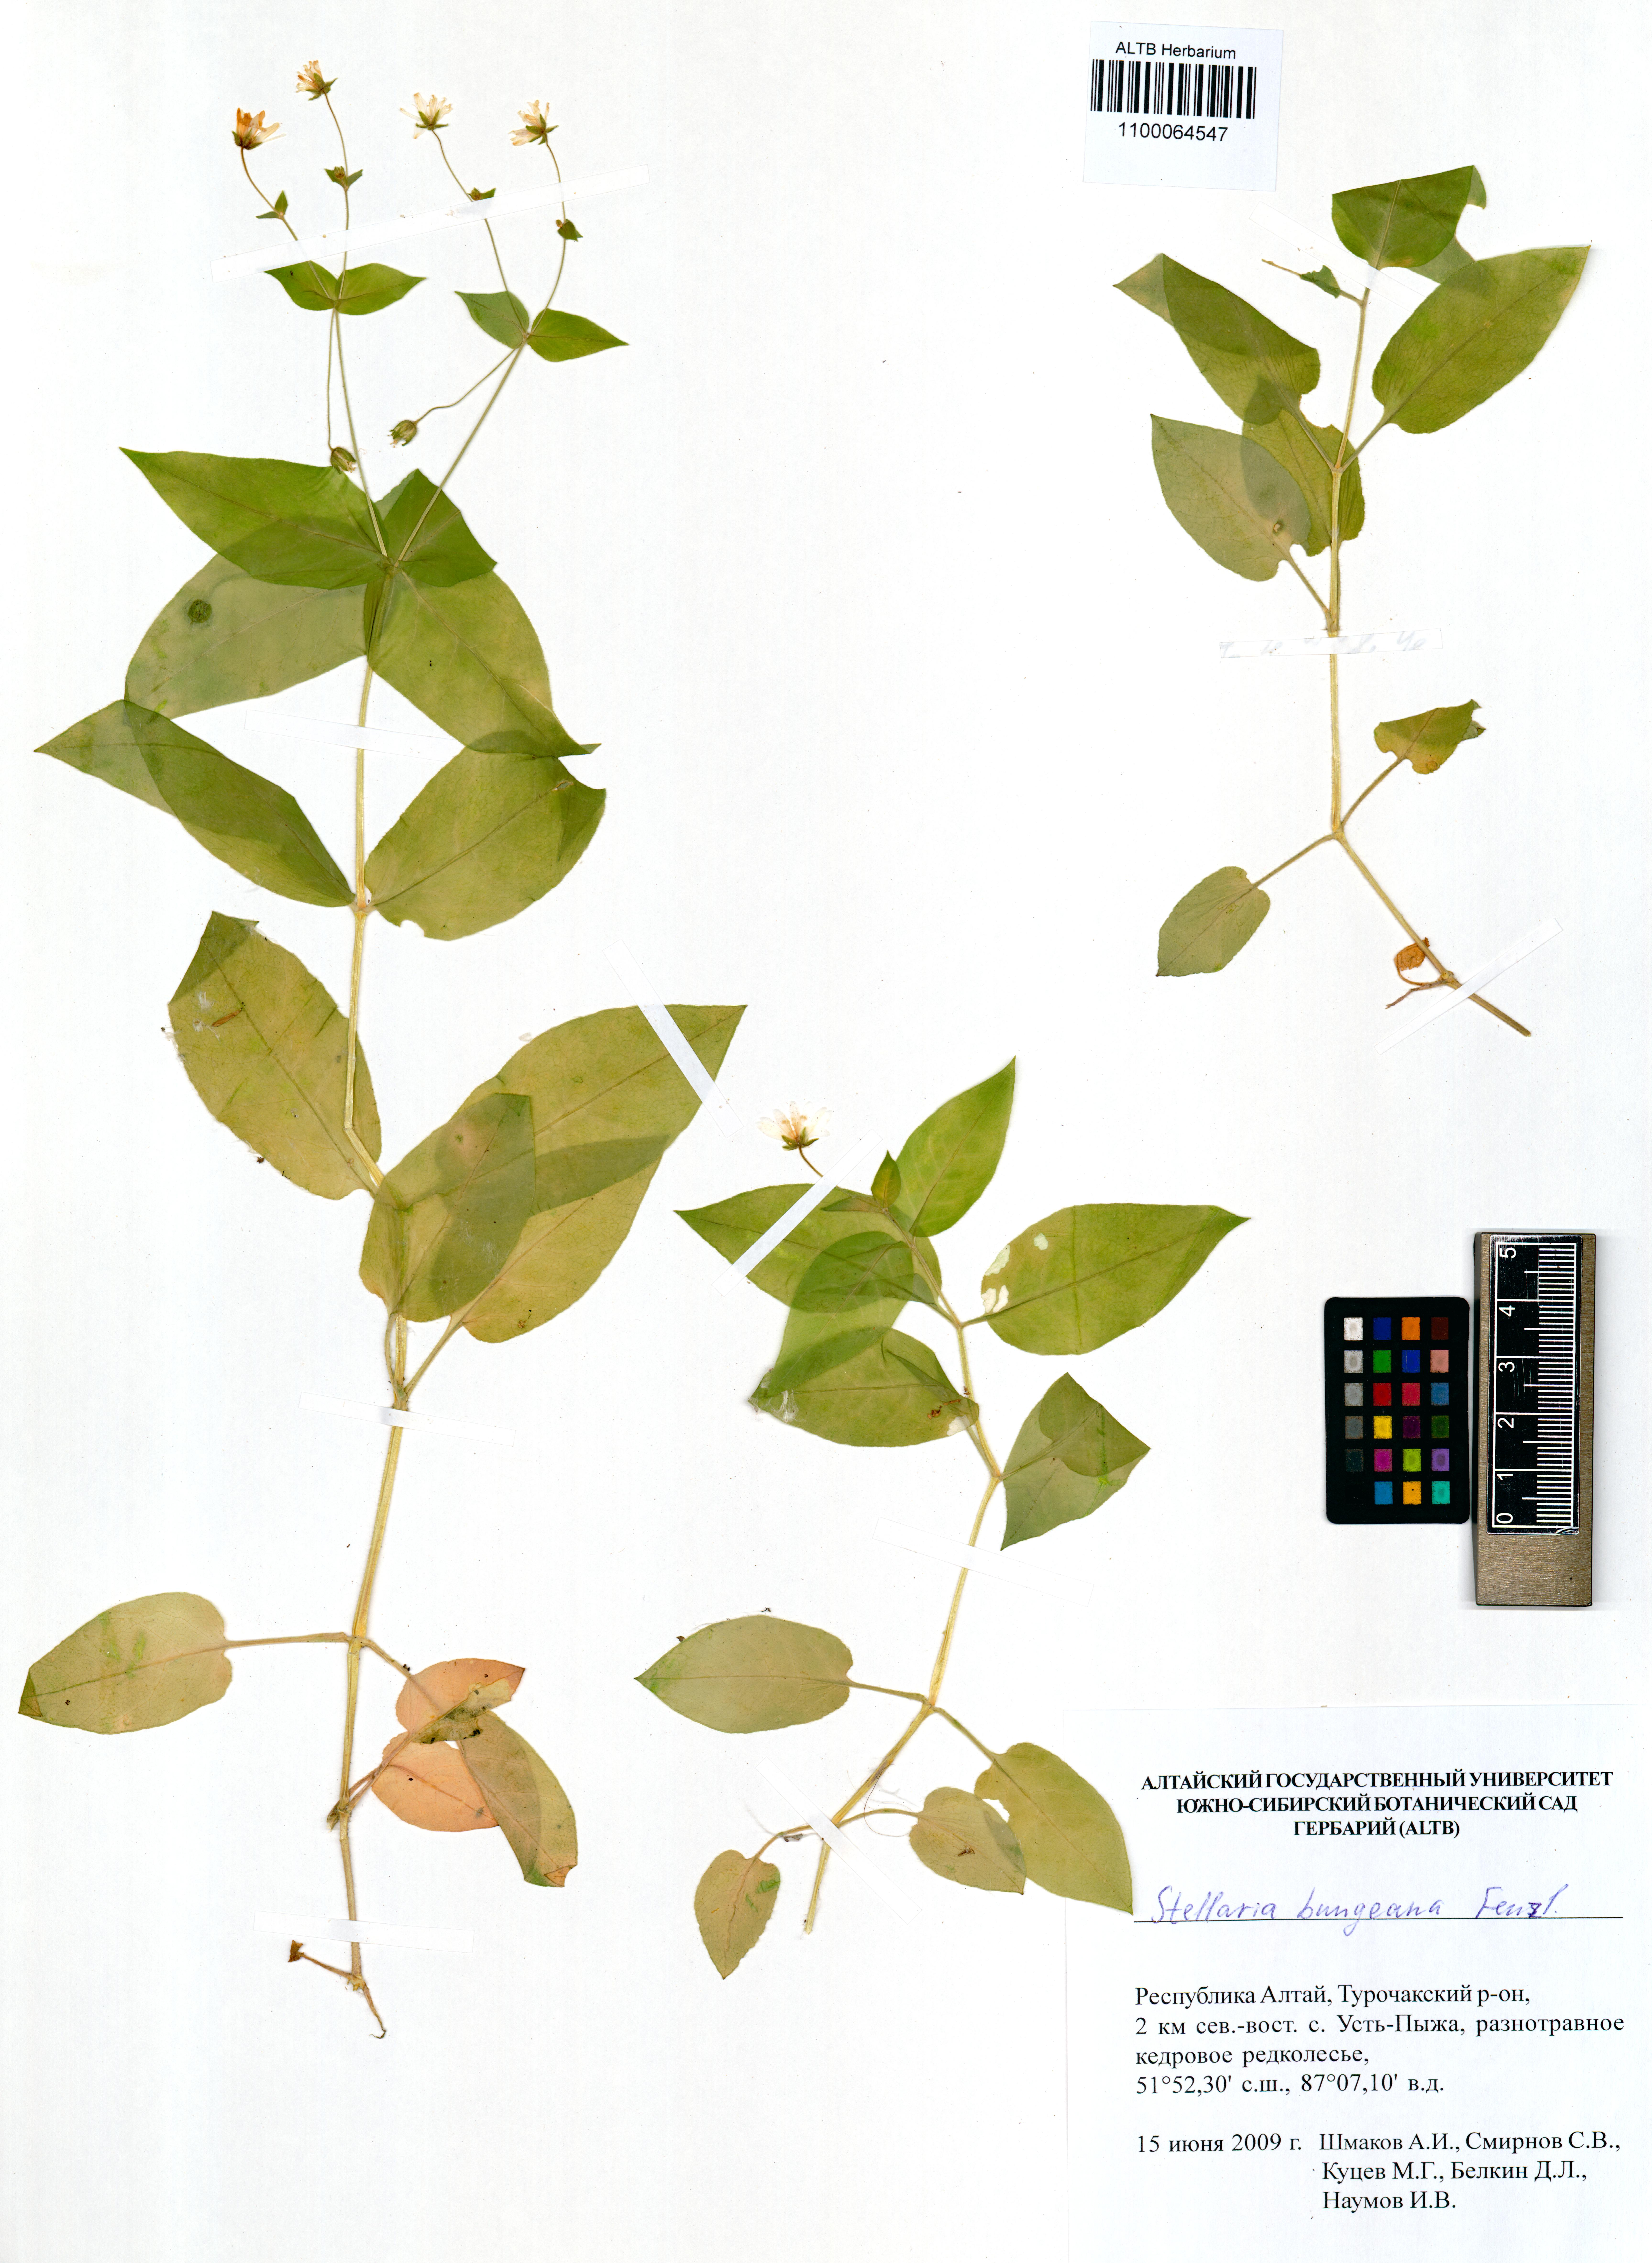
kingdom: Plantae
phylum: Tracheophyta
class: Magnoliopsida
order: Caryophyllales
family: Caryophyllaceae
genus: Stellaria
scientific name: Stellaria bungeana
